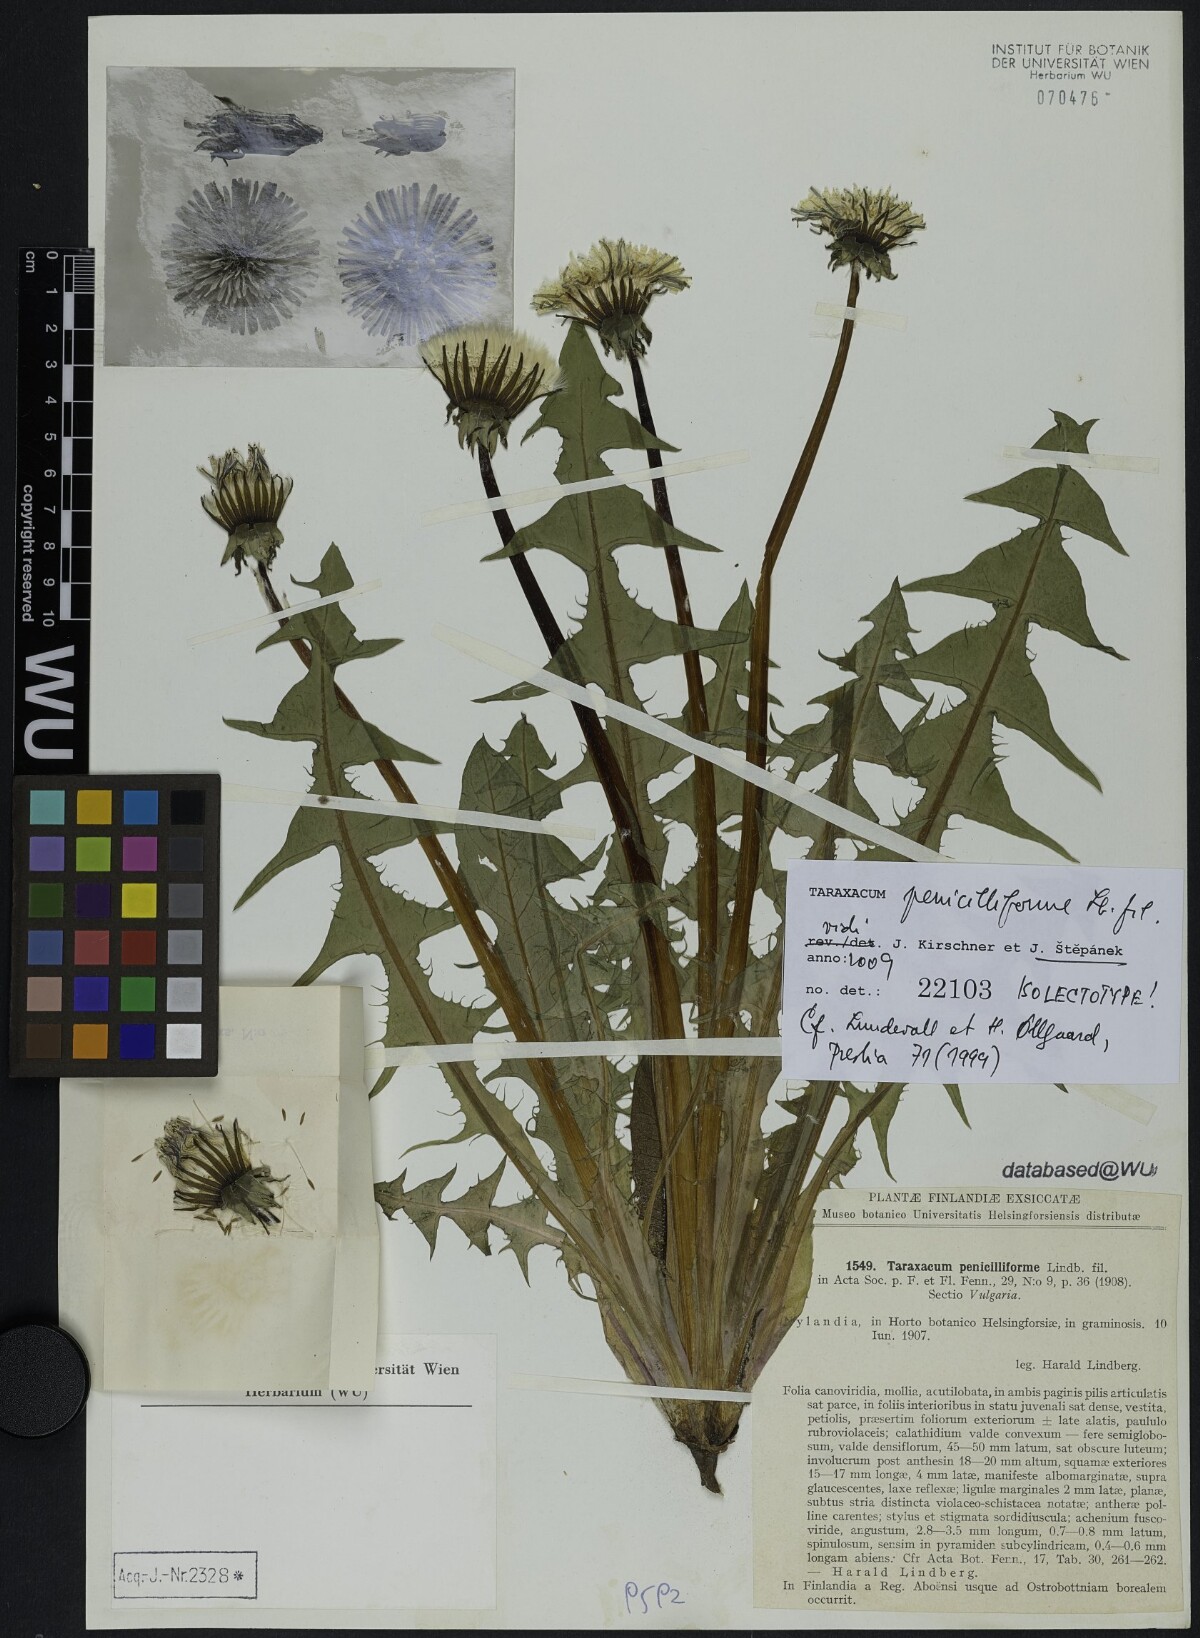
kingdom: Plantae
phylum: Tracheophyta
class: Magnoliopsida
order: Asterales
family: Asteraceae
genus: Taraxacum
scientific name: Taraxacum penicilliforme
